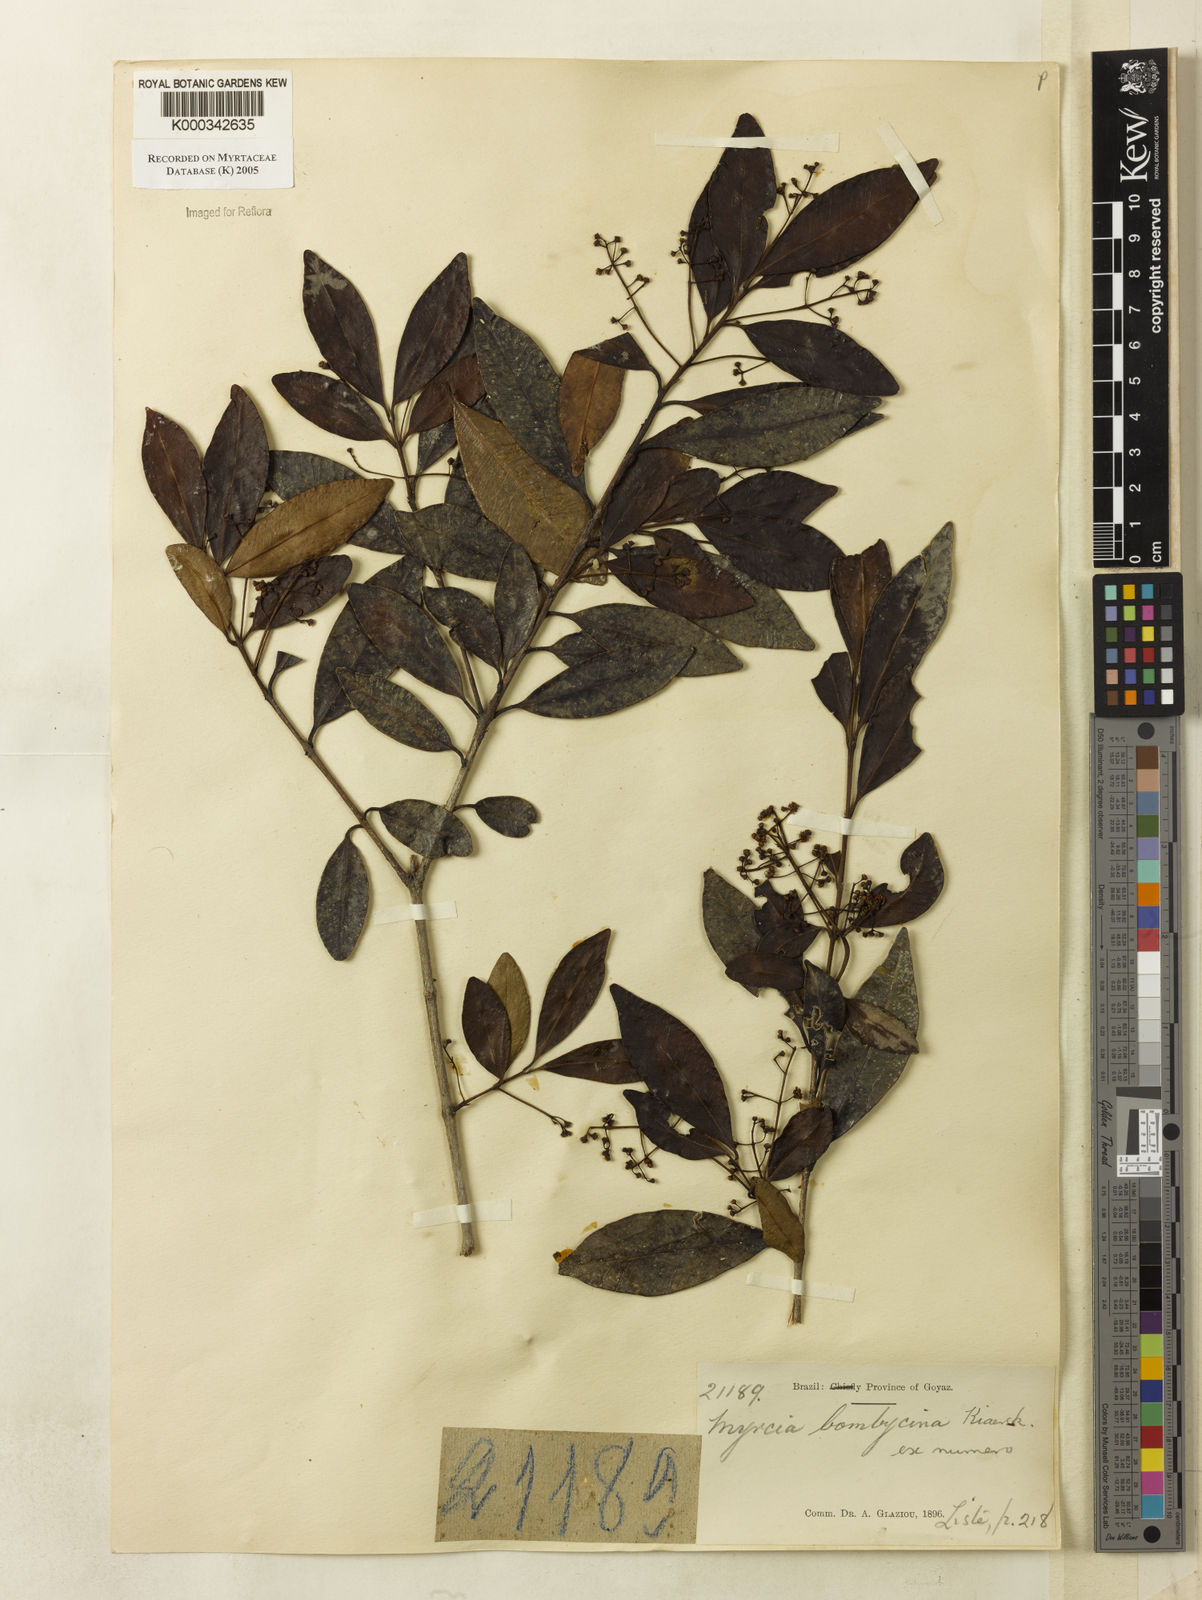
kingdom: Plantae
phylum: Tracheophyta
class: Magnoliopsida
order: Myrtales
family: Myrtaceae
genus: Myrcia
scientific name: Myrcia
